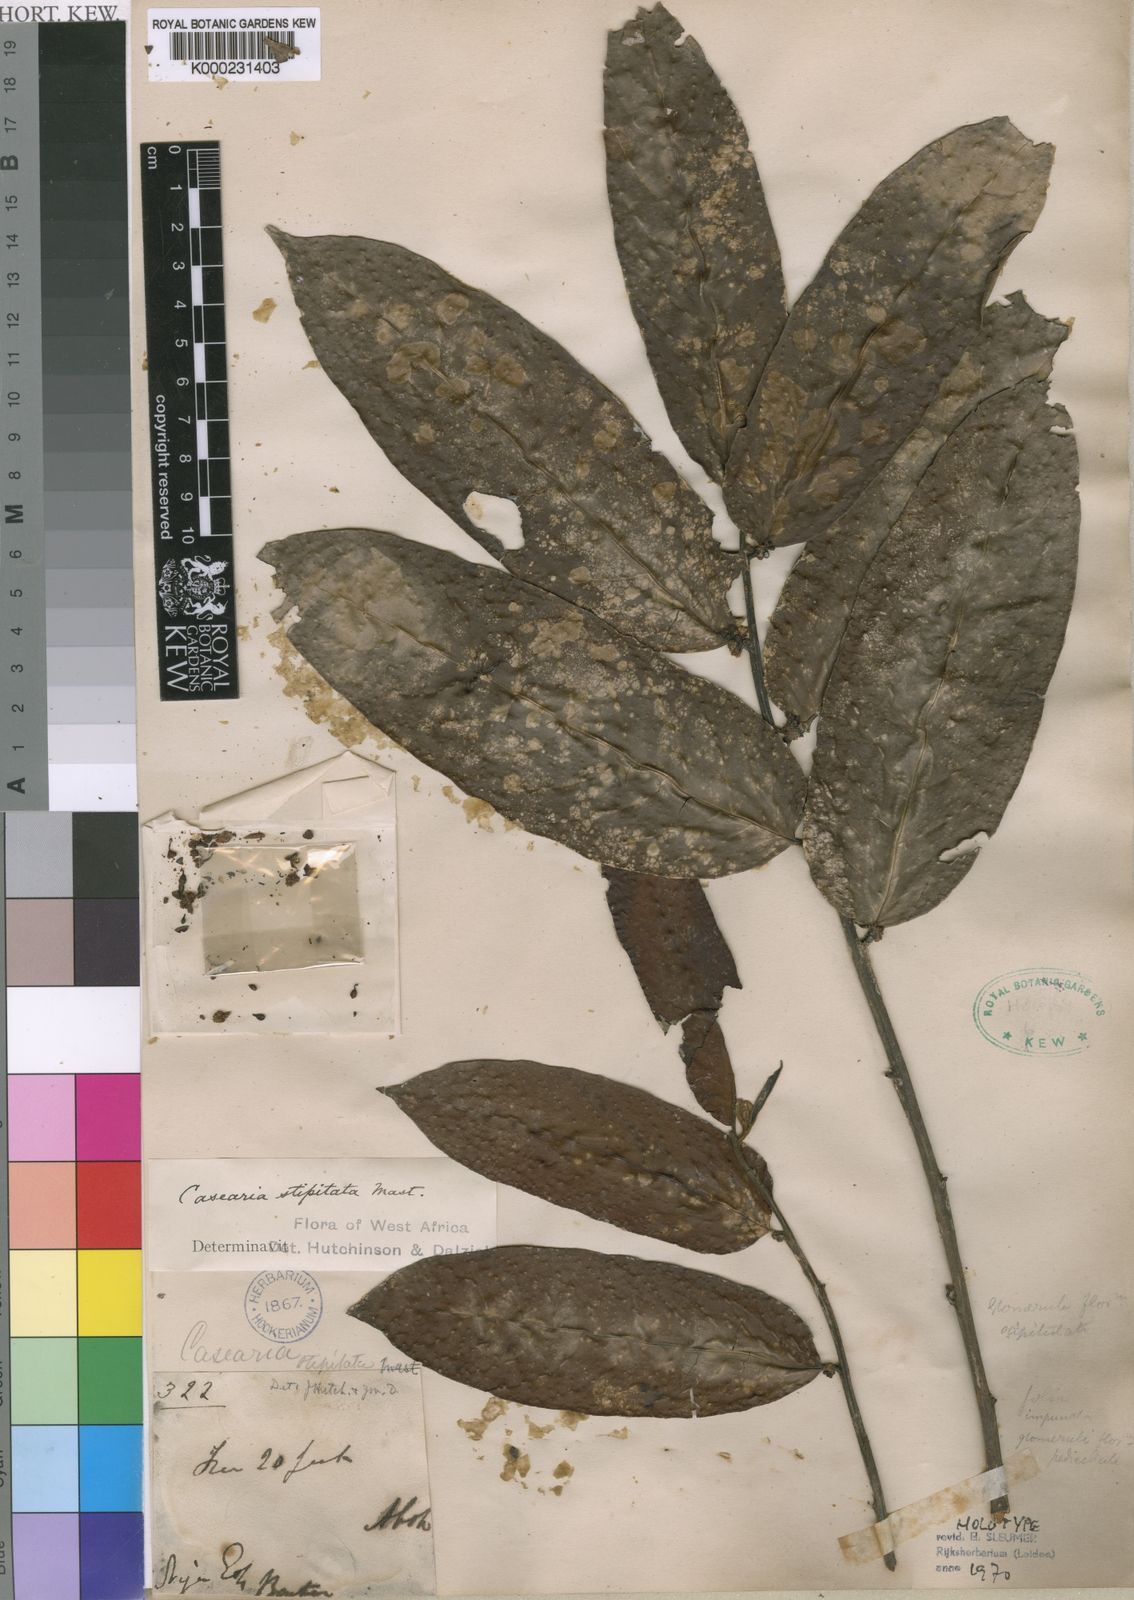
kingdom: Plantae
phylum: Tracheophyta
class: Magnoliopsida
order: Malpighiales
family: Salicaceae
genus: Casearia
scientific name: Casearia stipitata
